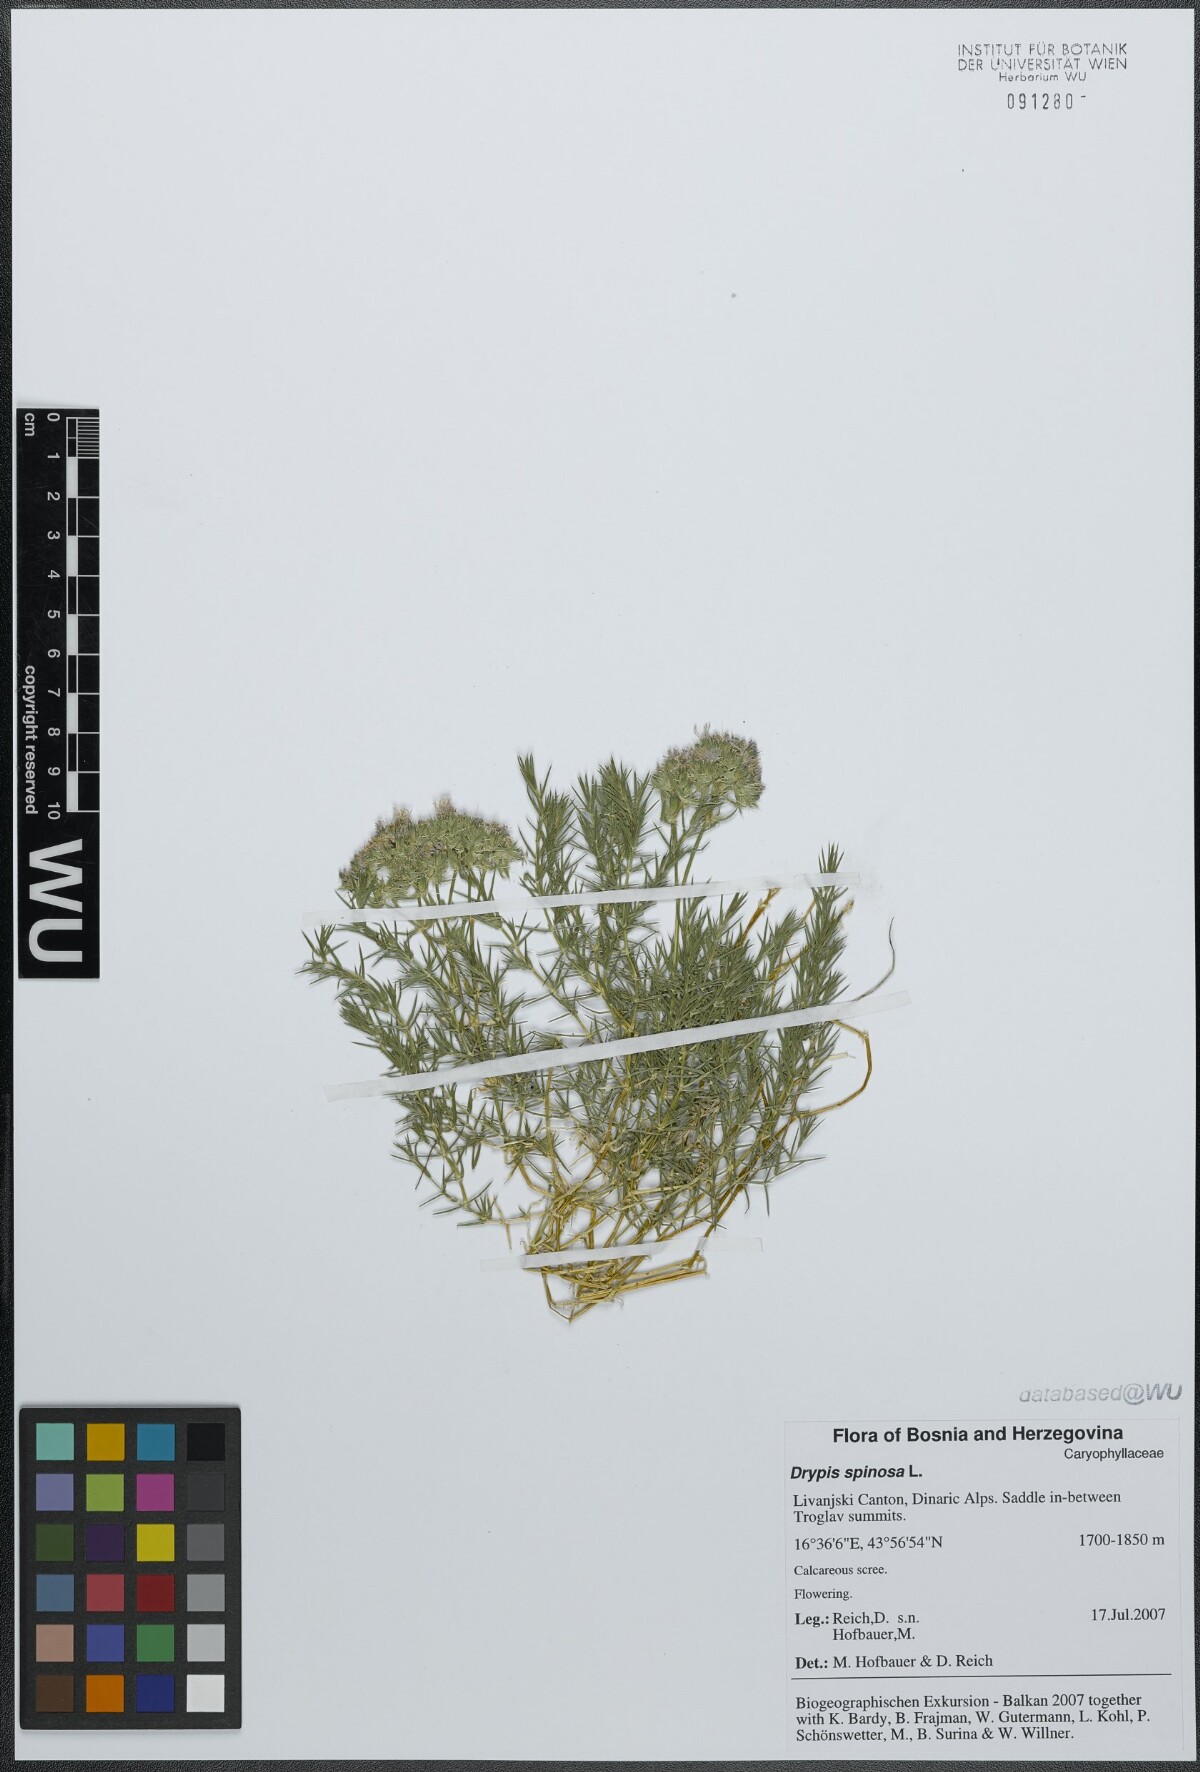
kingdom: Plantae
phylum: Tracheophyta
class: Magnoliopsida
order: Caryophyllales
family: Caryophyllaceae
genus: Drypis
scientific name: Drypis spinosa
